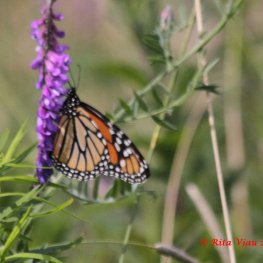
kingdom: Animalia
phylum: Arthropoda
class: Insecta
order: Lepidoptera
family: Nymphalidae
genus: Danaus
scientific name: Danaus plexippus
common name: Monarch
